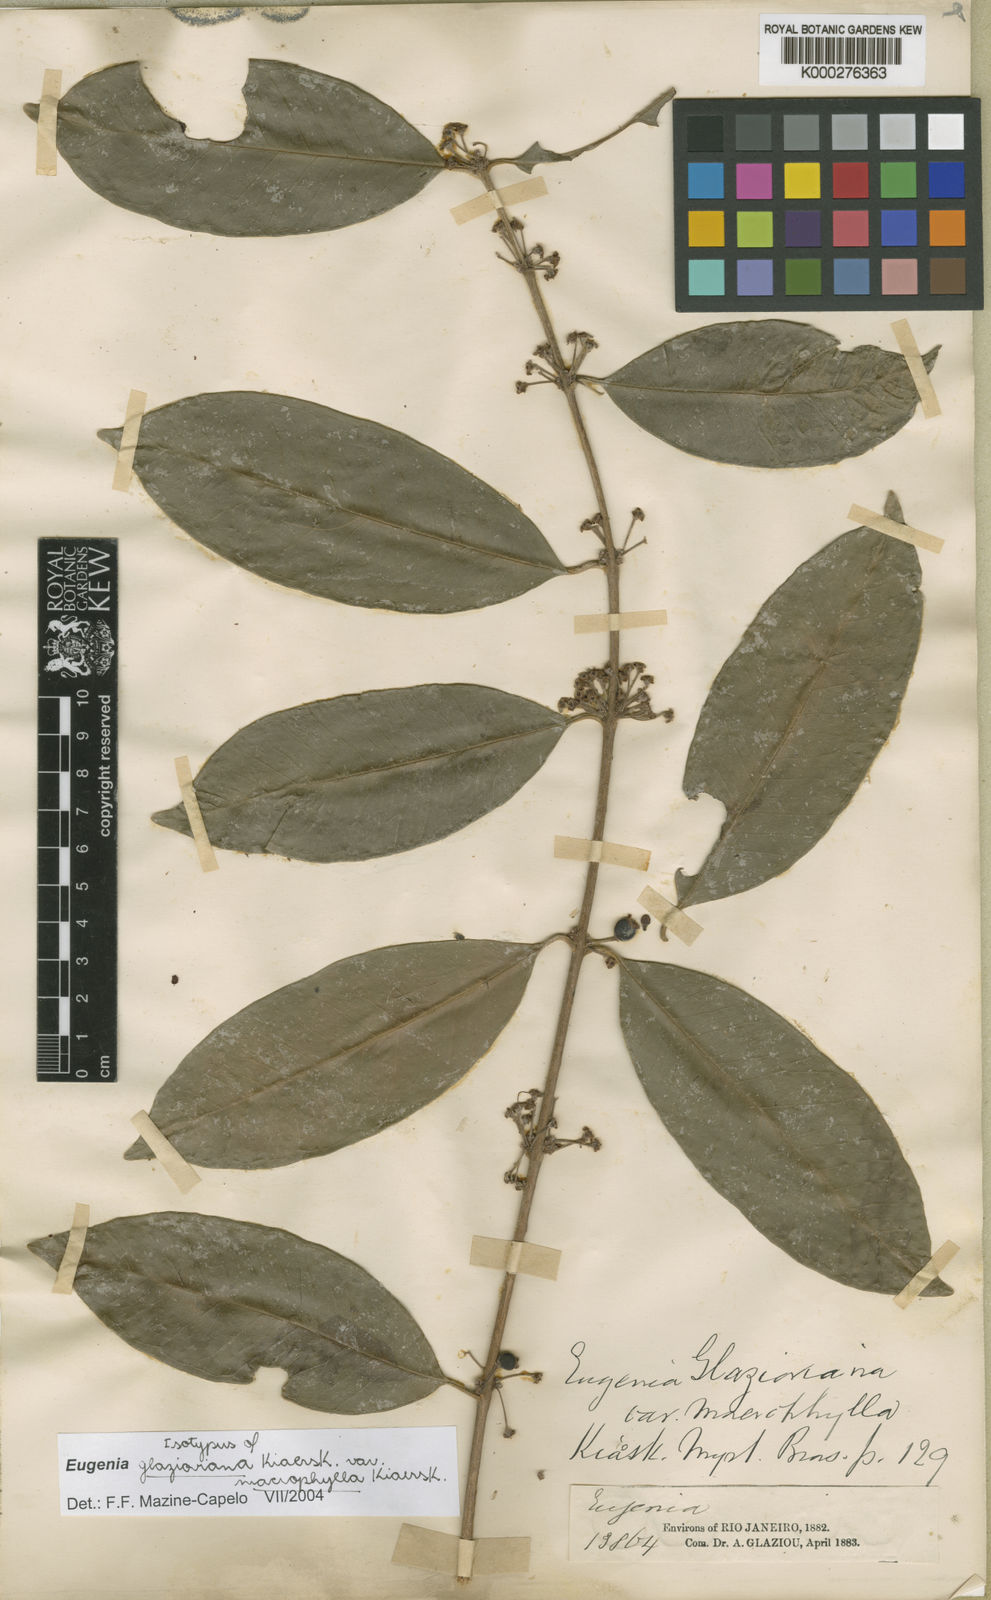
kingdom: Plantae
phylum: Tracheophyta
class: Magnoliopsida
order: Myrtales
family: Myrtaceae
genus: Eugenia
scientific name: Eugenia francavilleana
